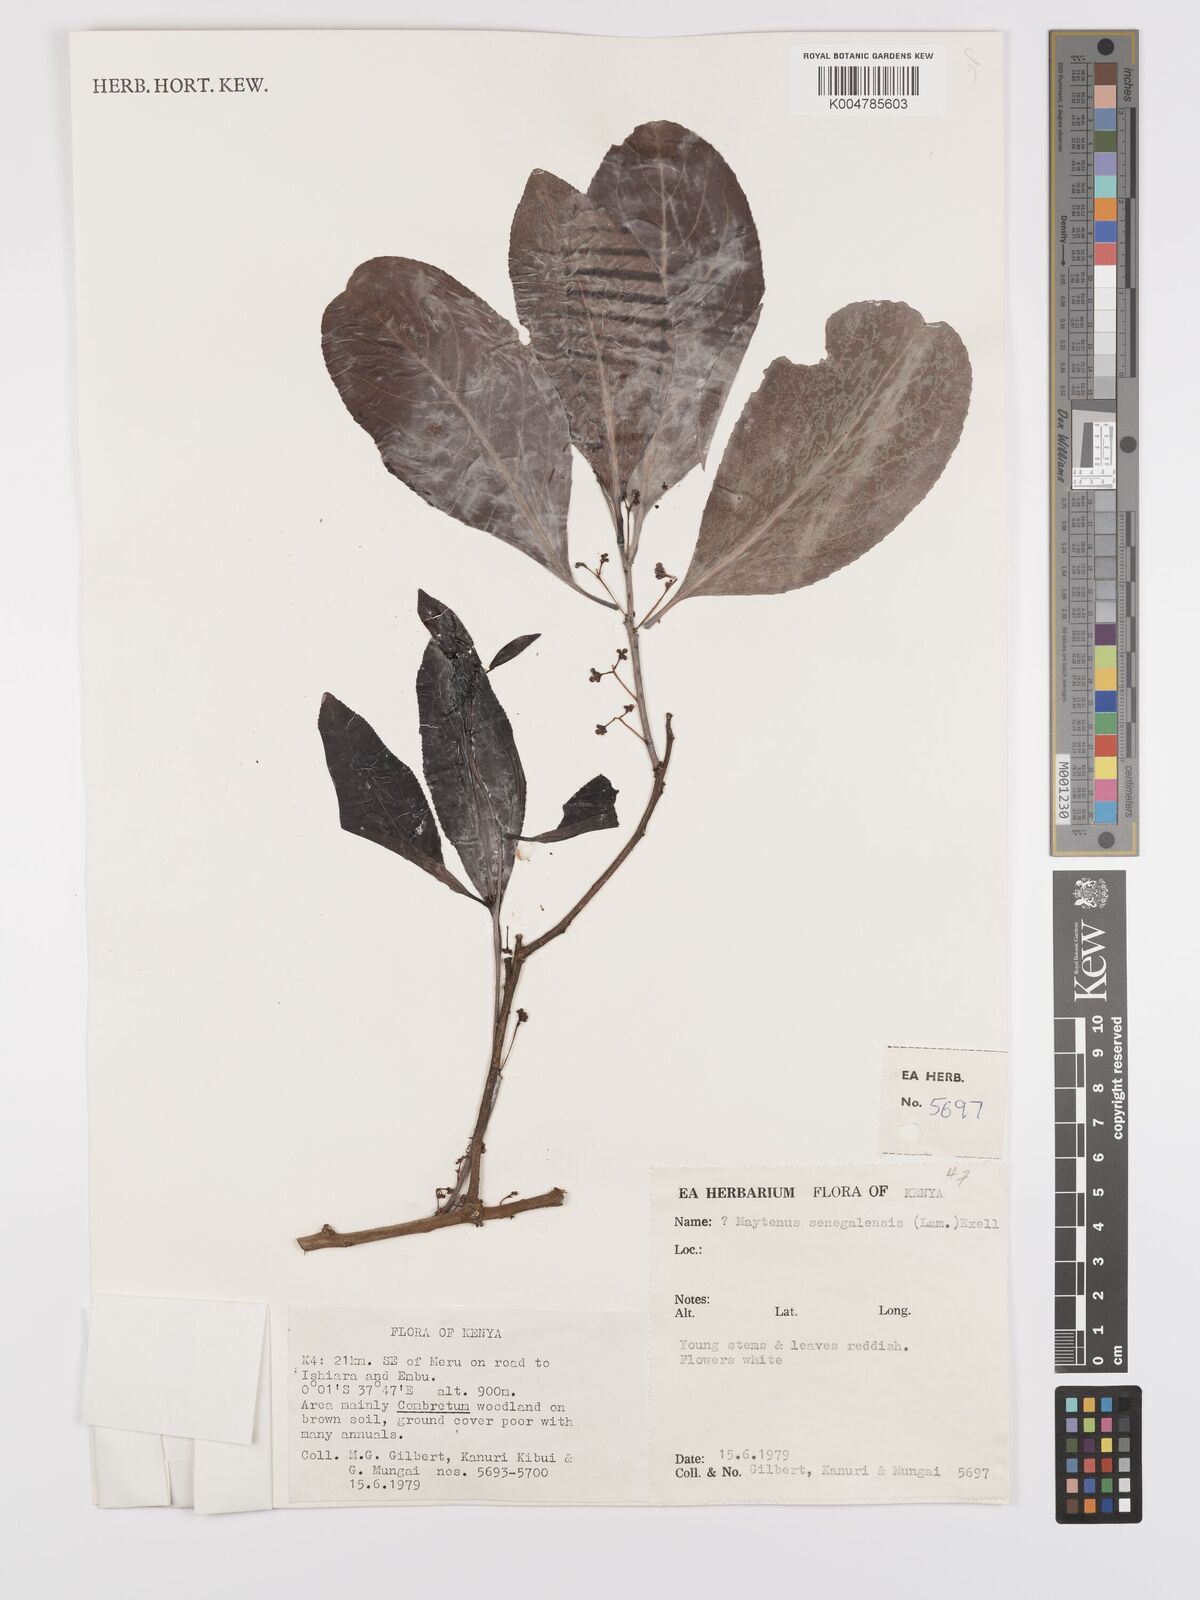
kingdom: Plantae
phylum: Tracheophyta
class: Magnoliopsida
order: Celastrales
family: Celastraceae
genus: Gymnosporia
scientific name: Gymnosporia senegalensis
